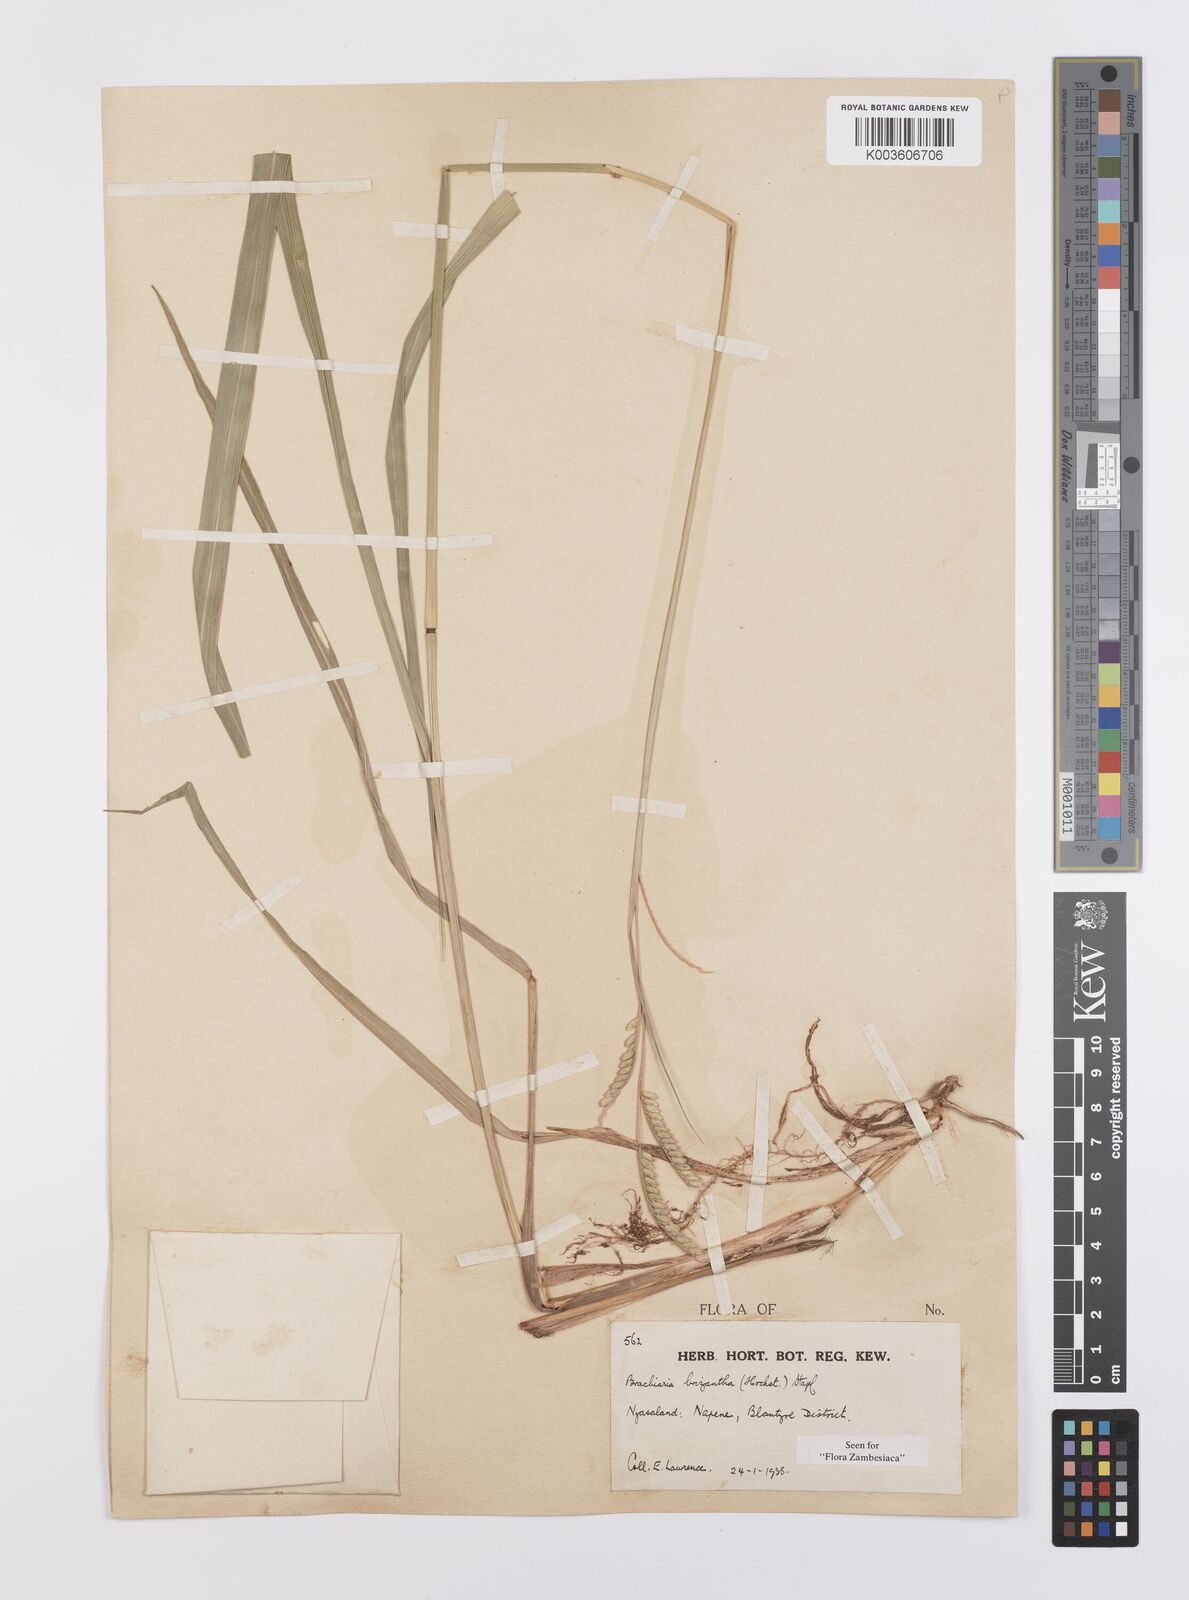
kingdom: Plantae
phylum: Tracheophyta
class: Liliopsida
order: Poales
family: Poaceae
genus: Urochloa
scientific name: Urochloa brizantha
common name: Palisade signalgrass
